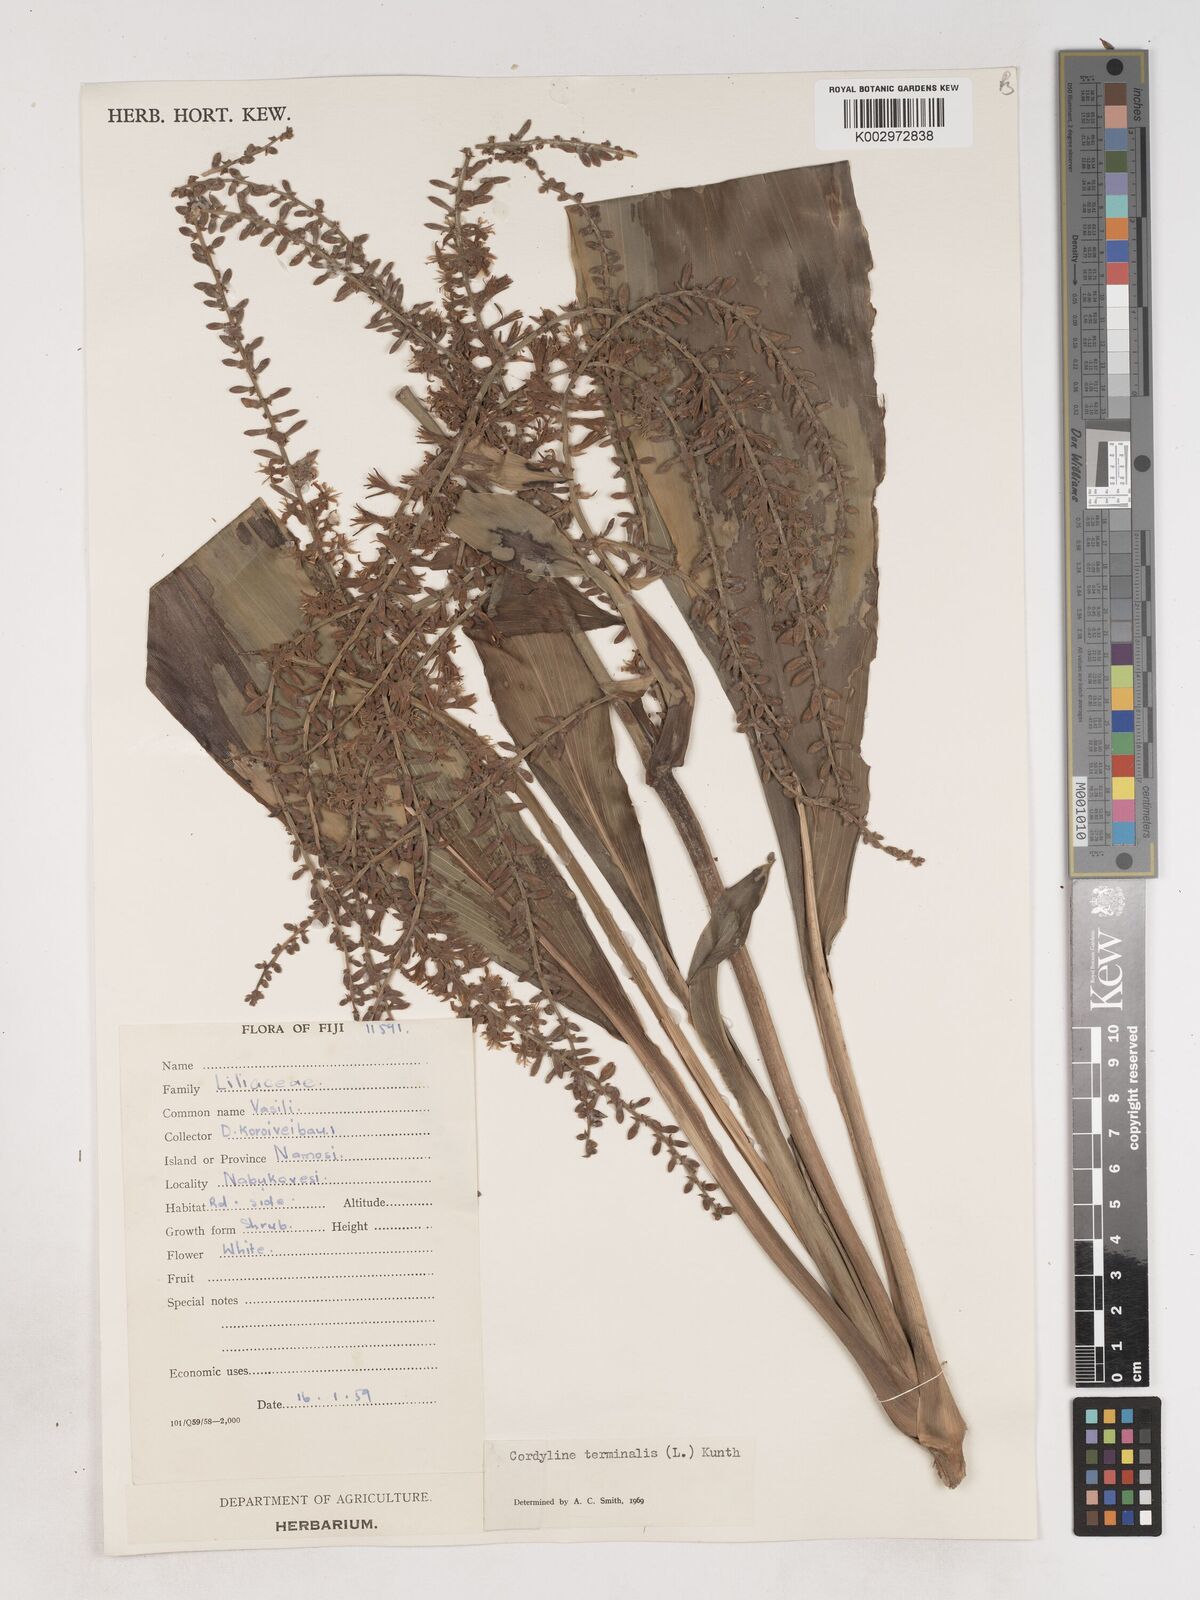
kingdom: Plantae
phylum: Tracheophyta
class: Liliopsida
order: Asparagales
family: Asparagaceae
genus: Cordyline
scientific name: Cordyline
